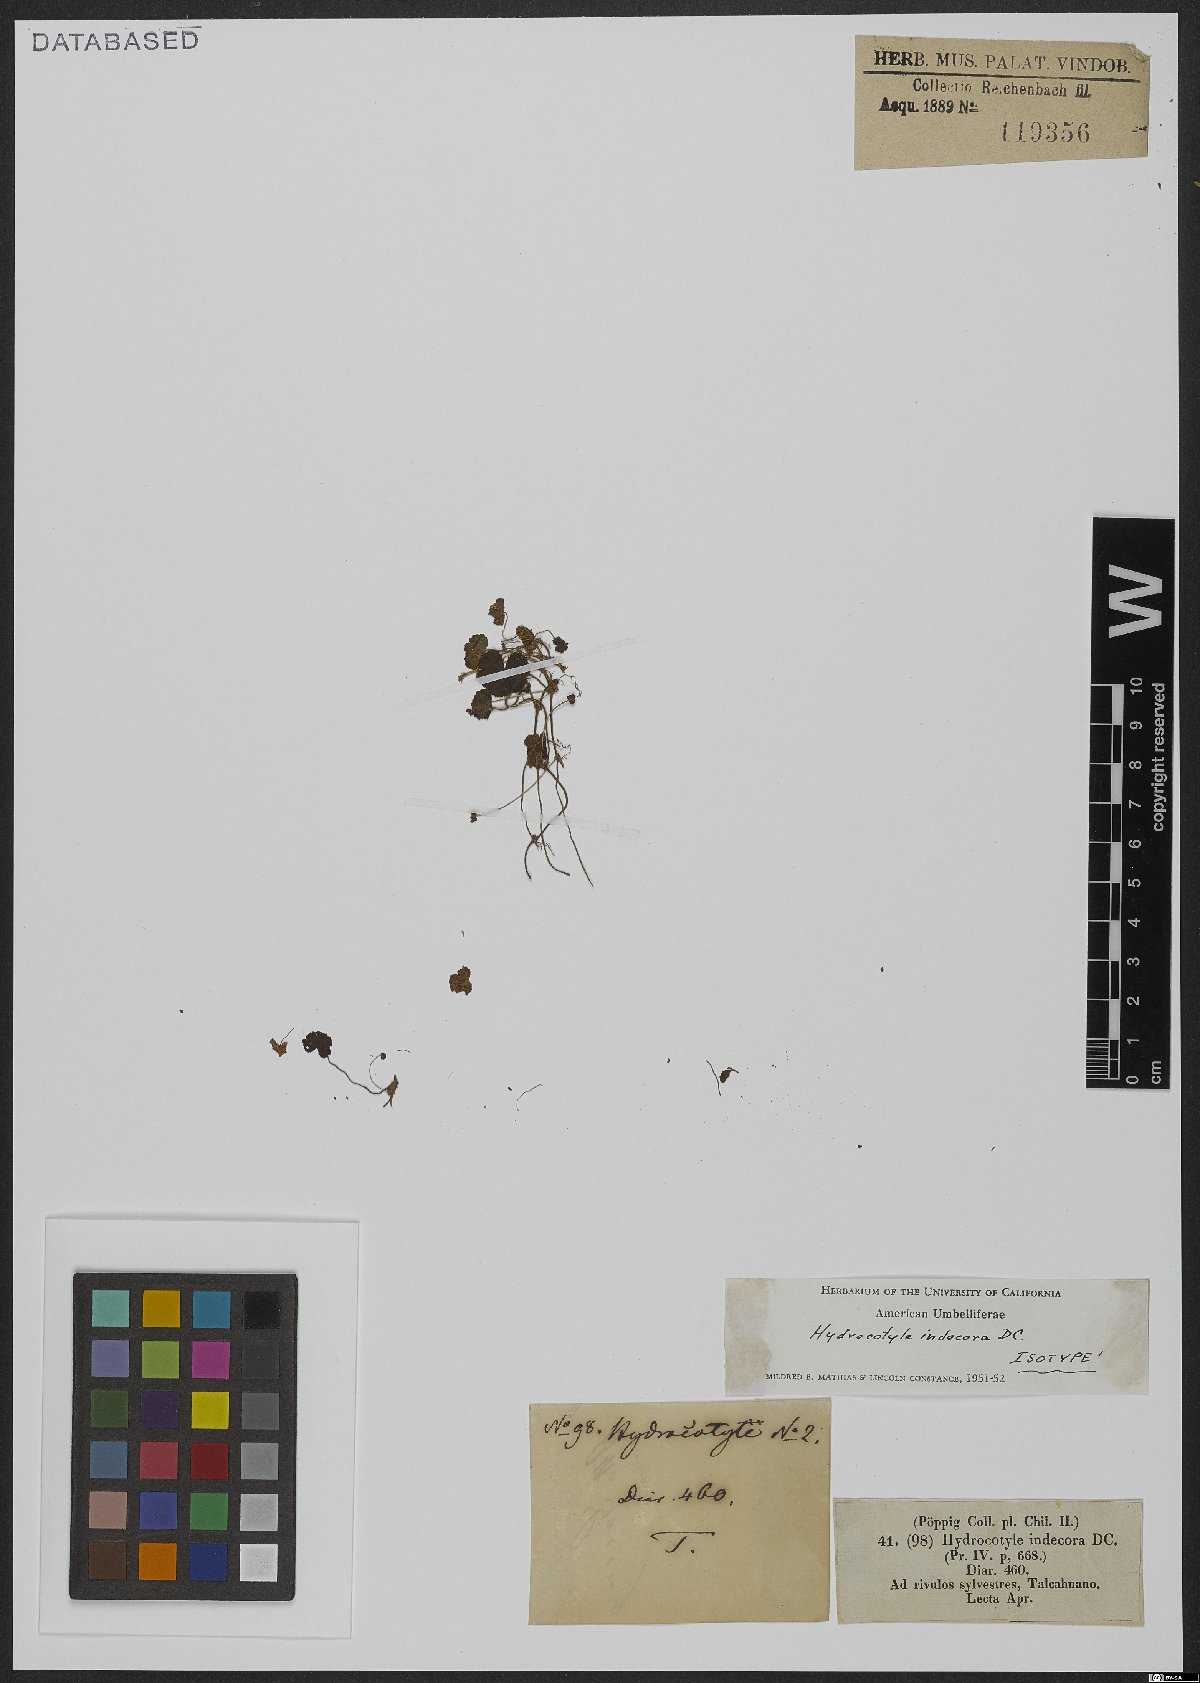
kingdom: Plantae
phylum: Tracheophyta
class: Magnoliopsida
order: Apiales
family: Araliaceae
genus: Hydrocotyle
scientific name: Hydrocotyle indecora
